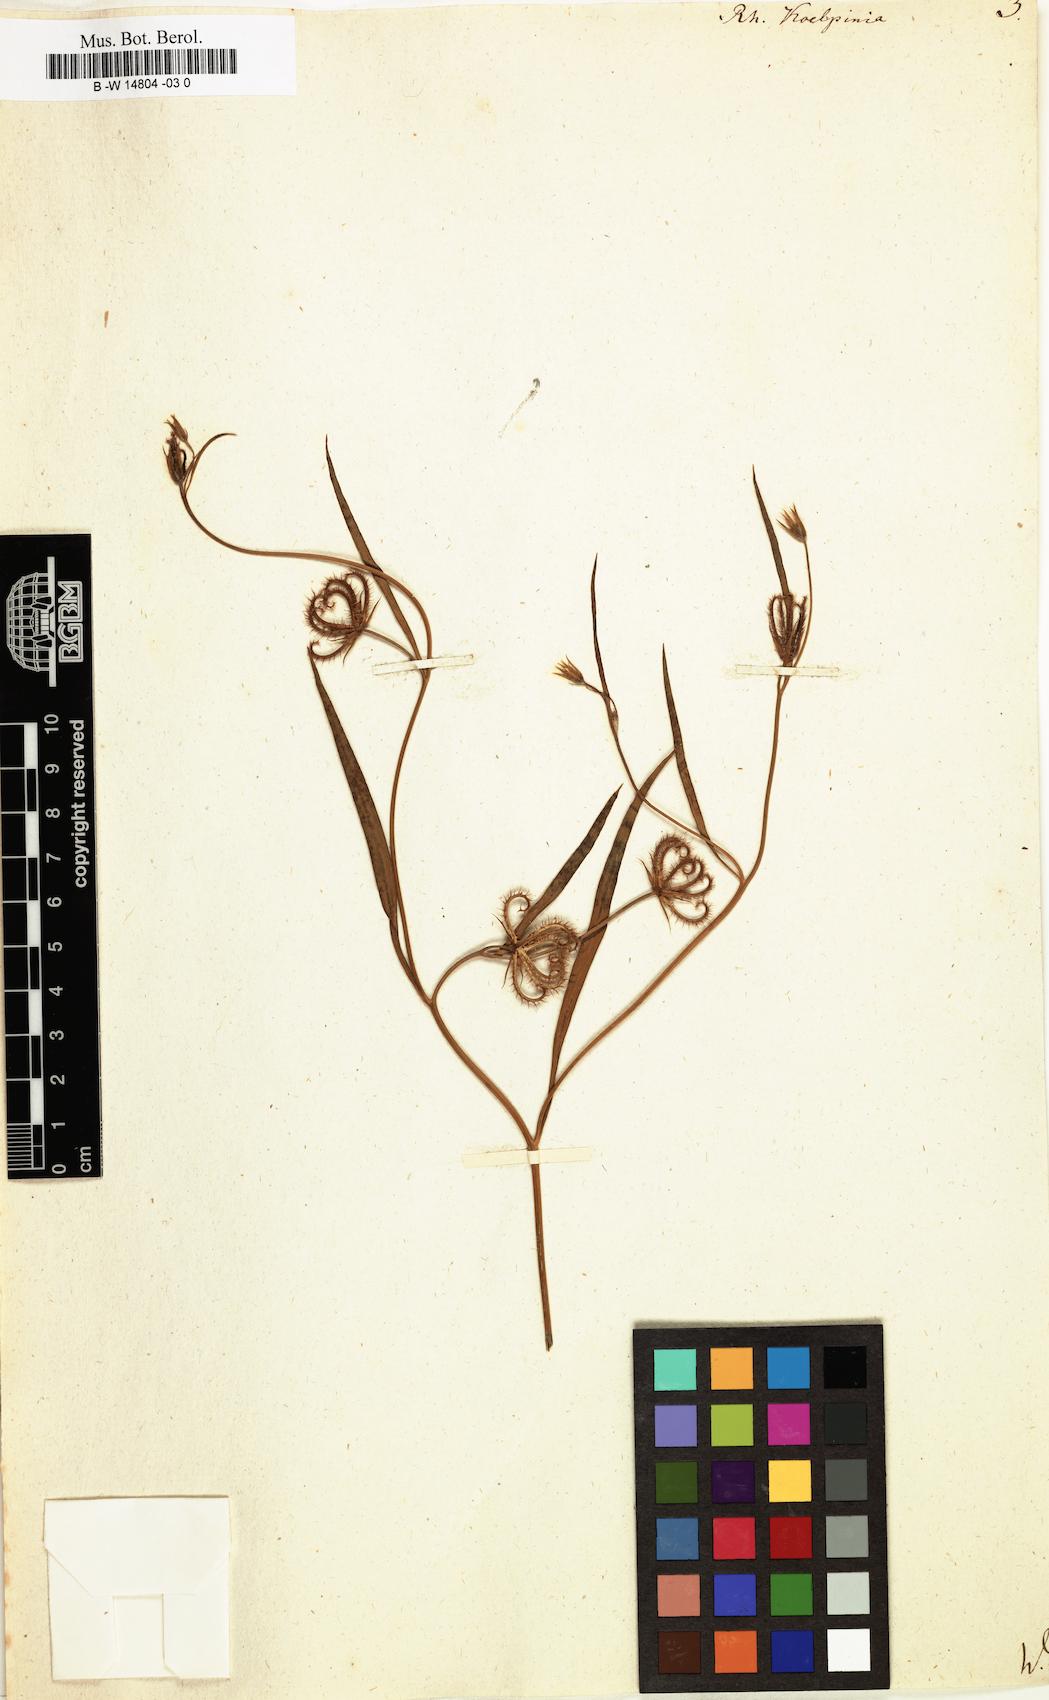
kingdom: Plantae
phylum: Tracheophyta
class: Magnoliopsida
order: Asterales
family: Asteraceae
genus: Koelpinia
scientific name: Koelpinia linearis
